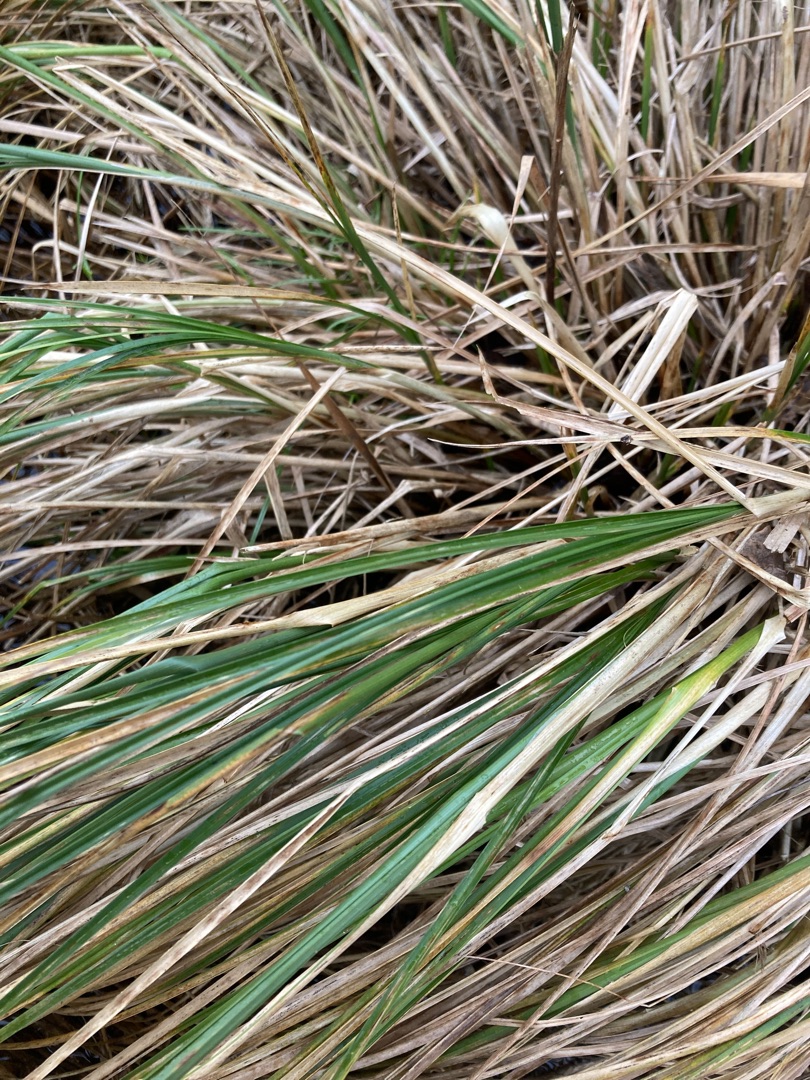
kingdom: Plantae
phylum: Tracheophyta
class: Liliopsida
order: Poales
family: Cyperaceae
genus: Carex
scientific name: Carex paniculata
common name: Top-star
